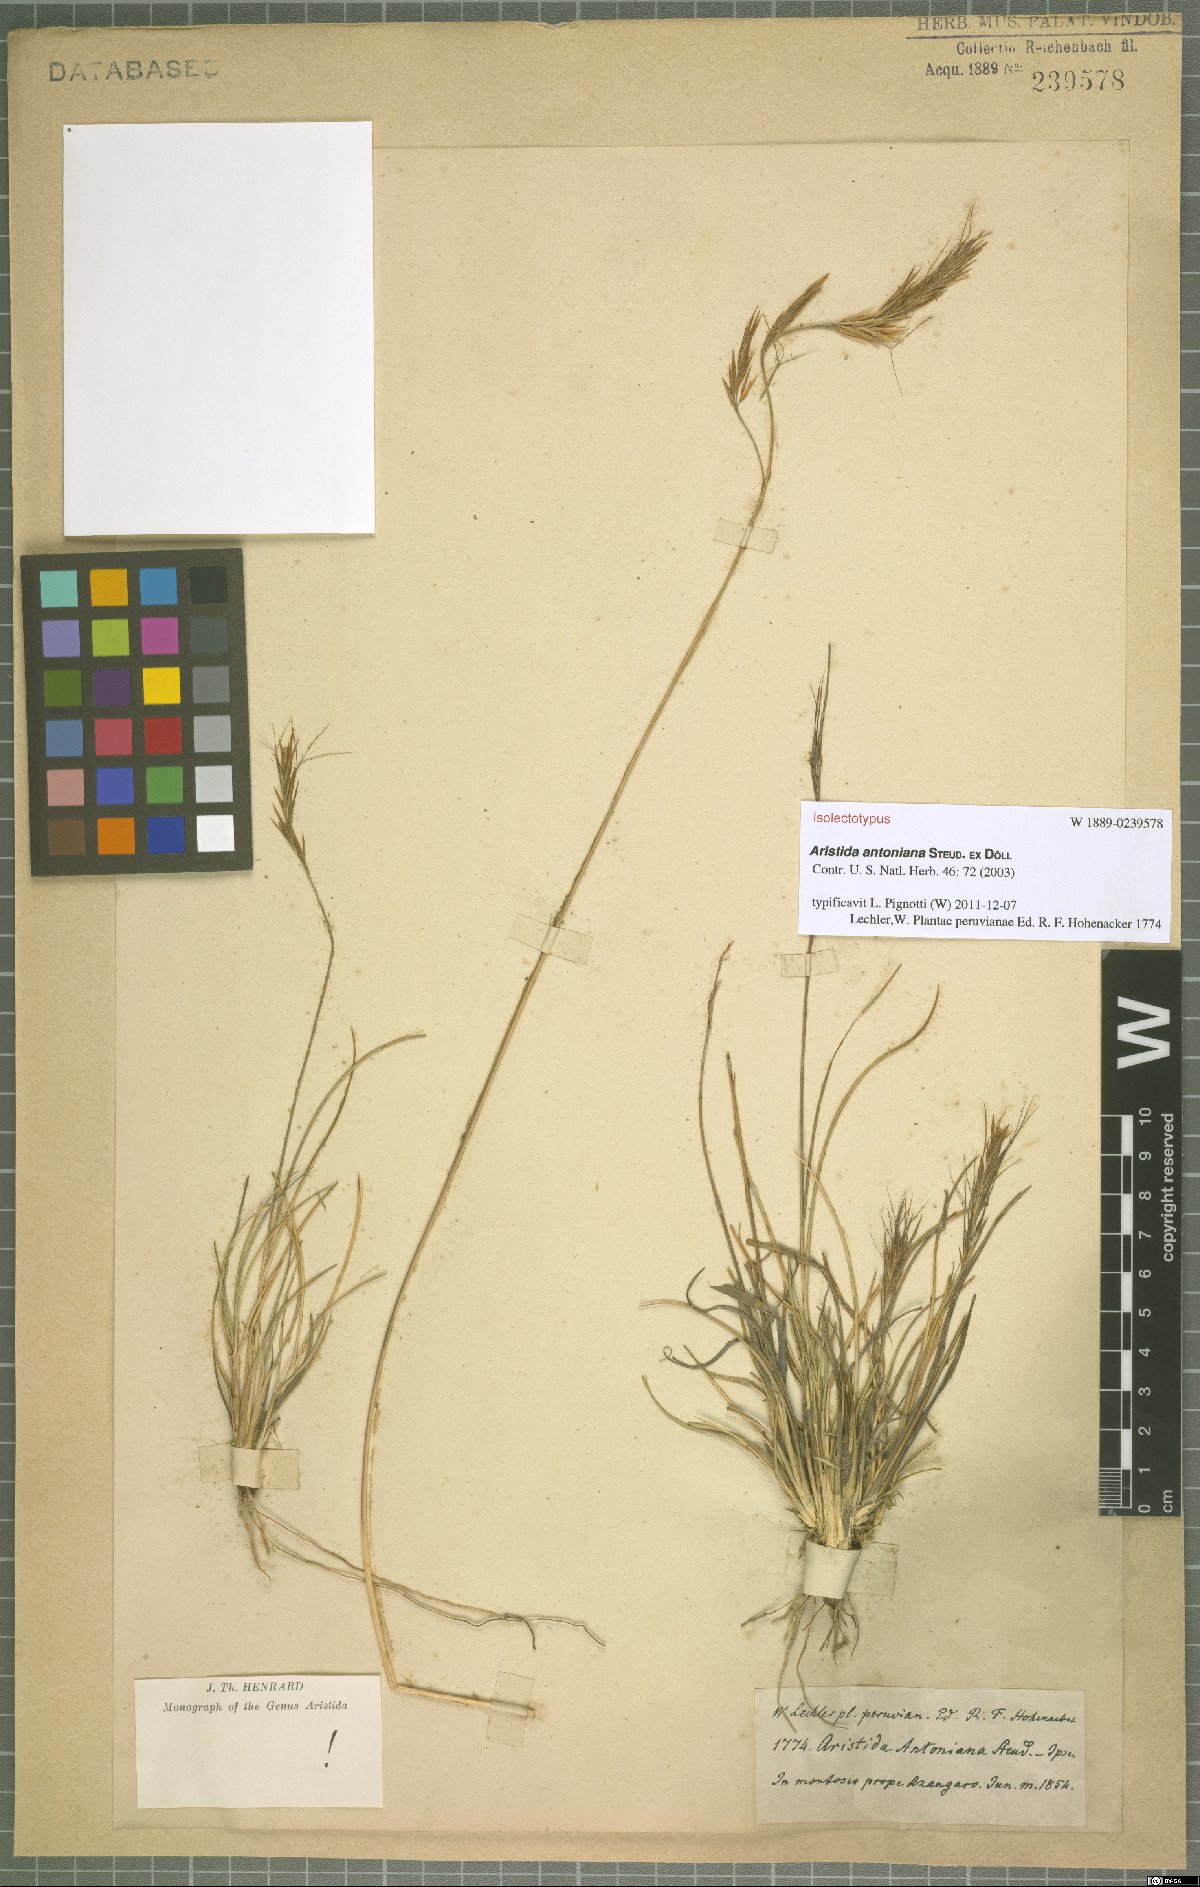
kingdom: Plantae
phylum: Tracheophyta
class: Liliopsida
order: Poales
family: Poaceae
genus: Aristida
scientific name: Aristida antoniana
